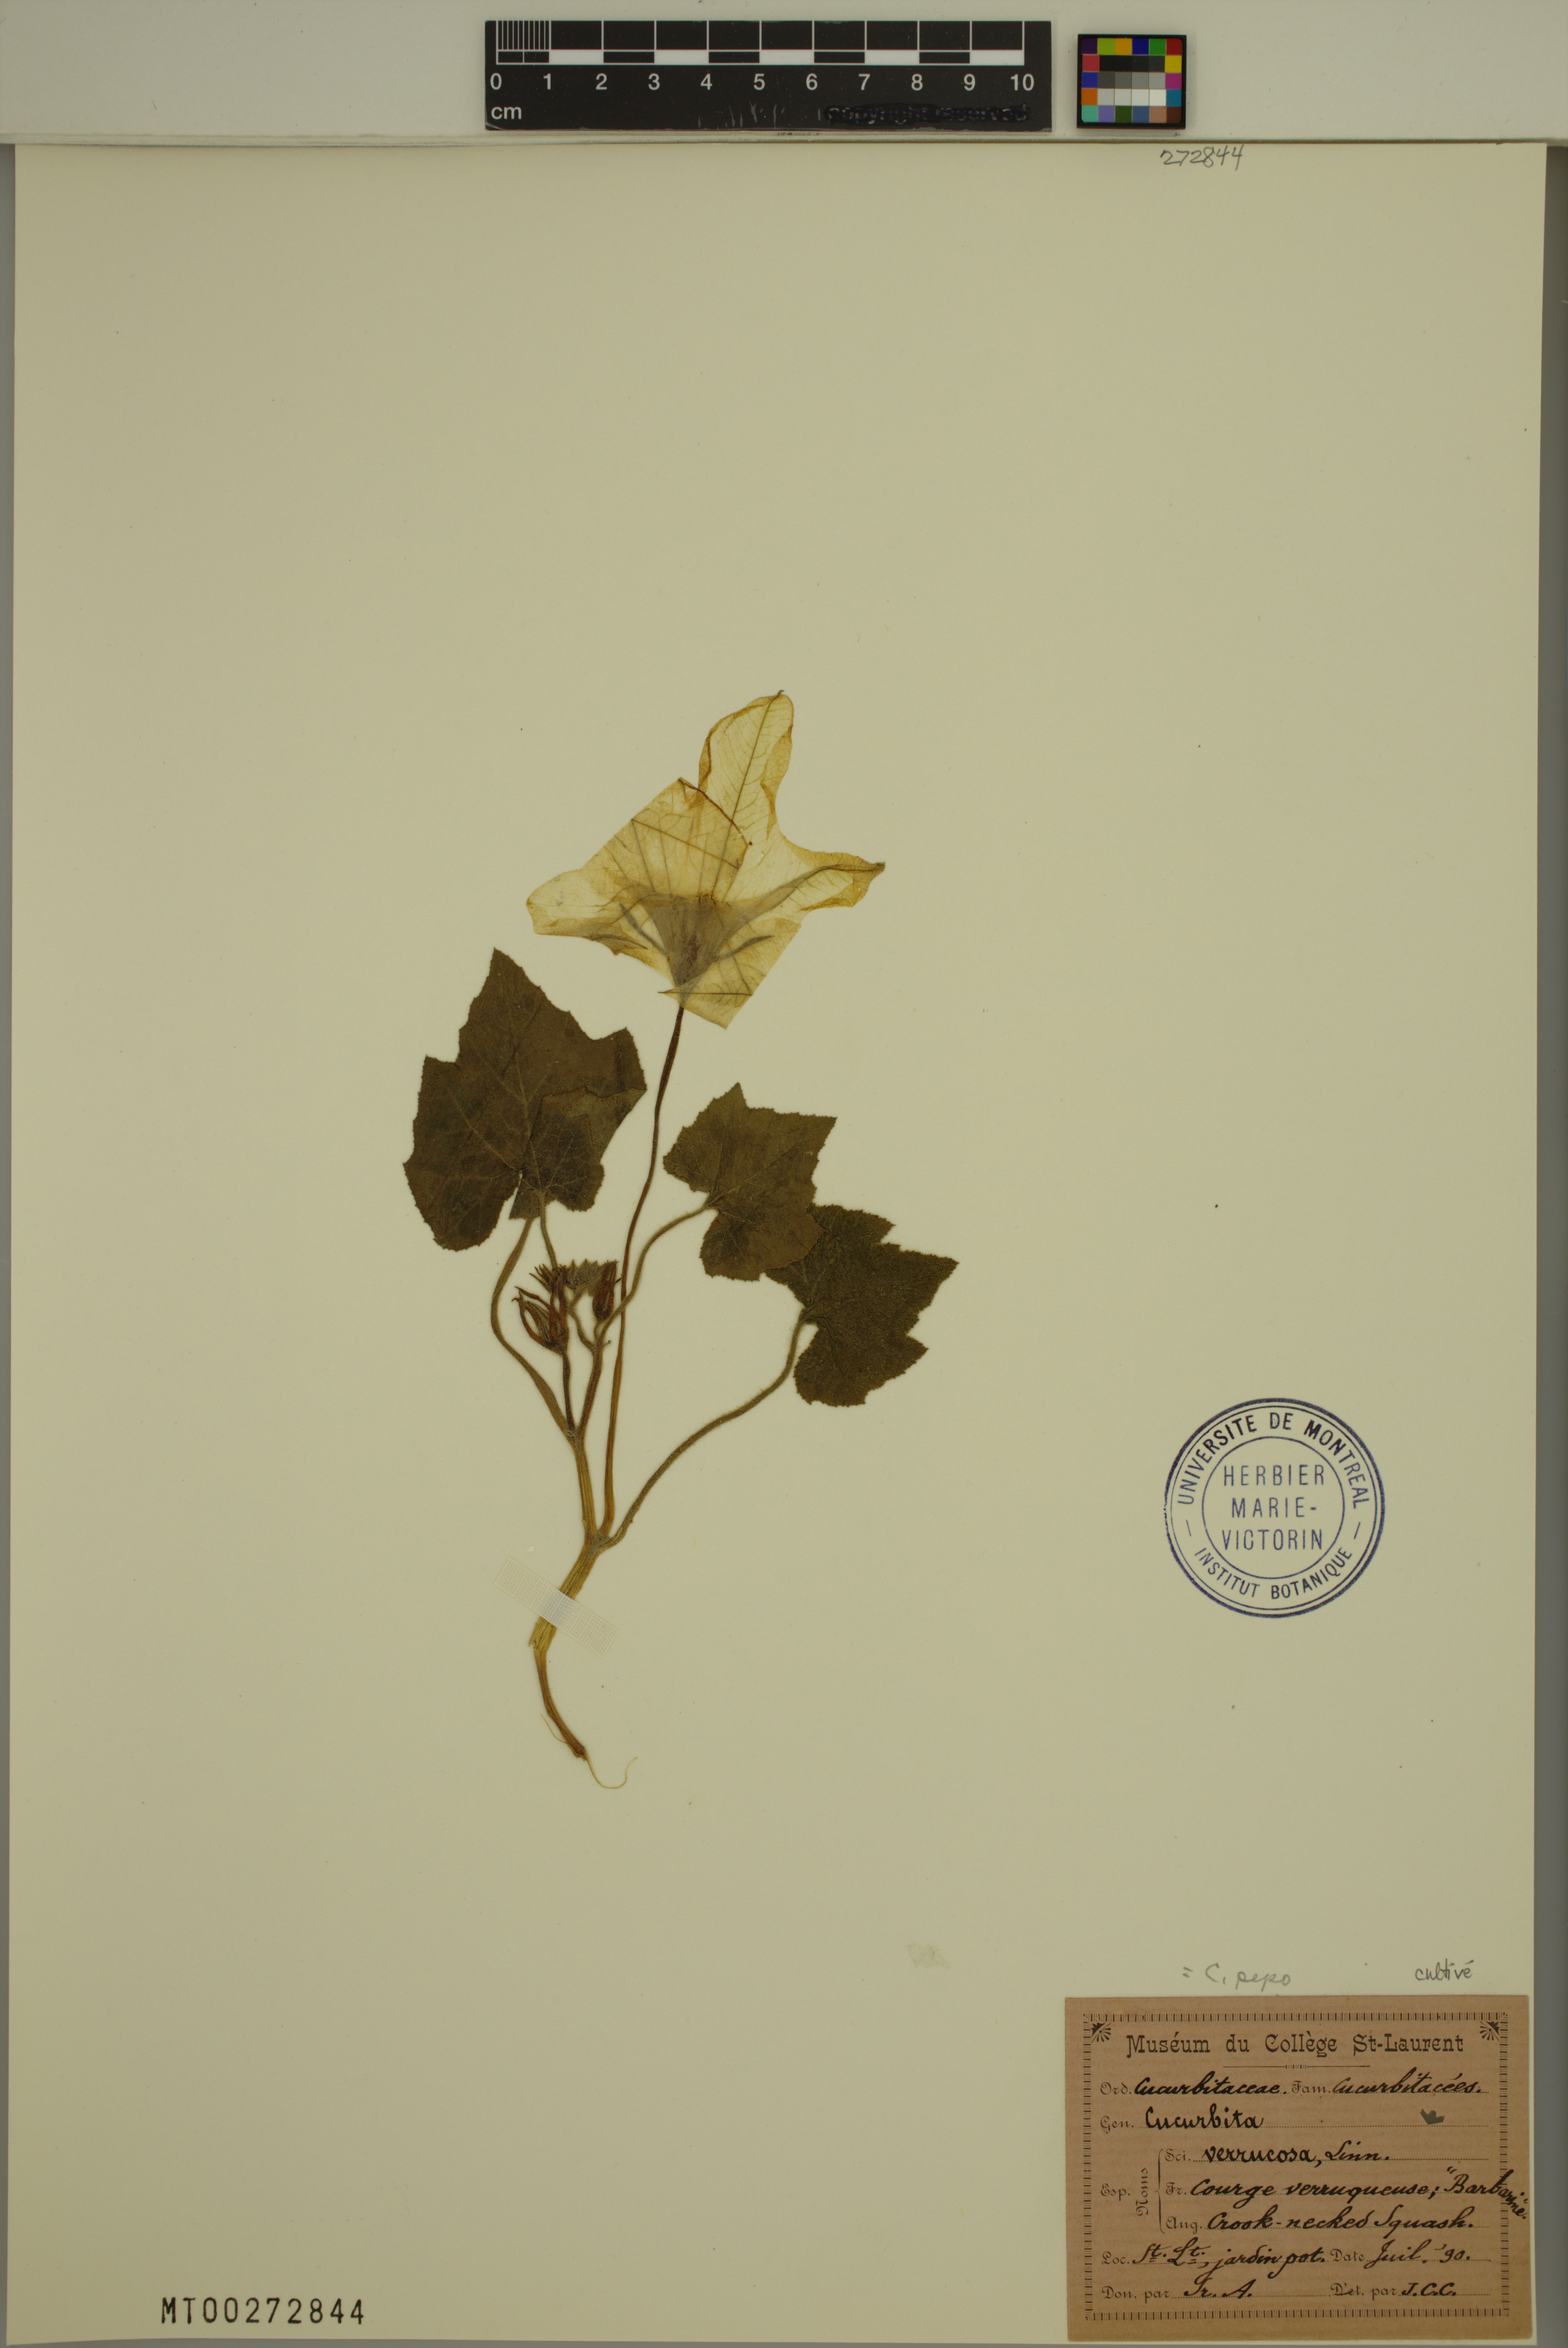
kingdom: Plantae
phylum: Tracheophyta
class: Magnoliopsida
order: Cucurbitales
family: Cucurbitaceae
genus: Cucurbita
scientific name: Cucurbita melopepo
